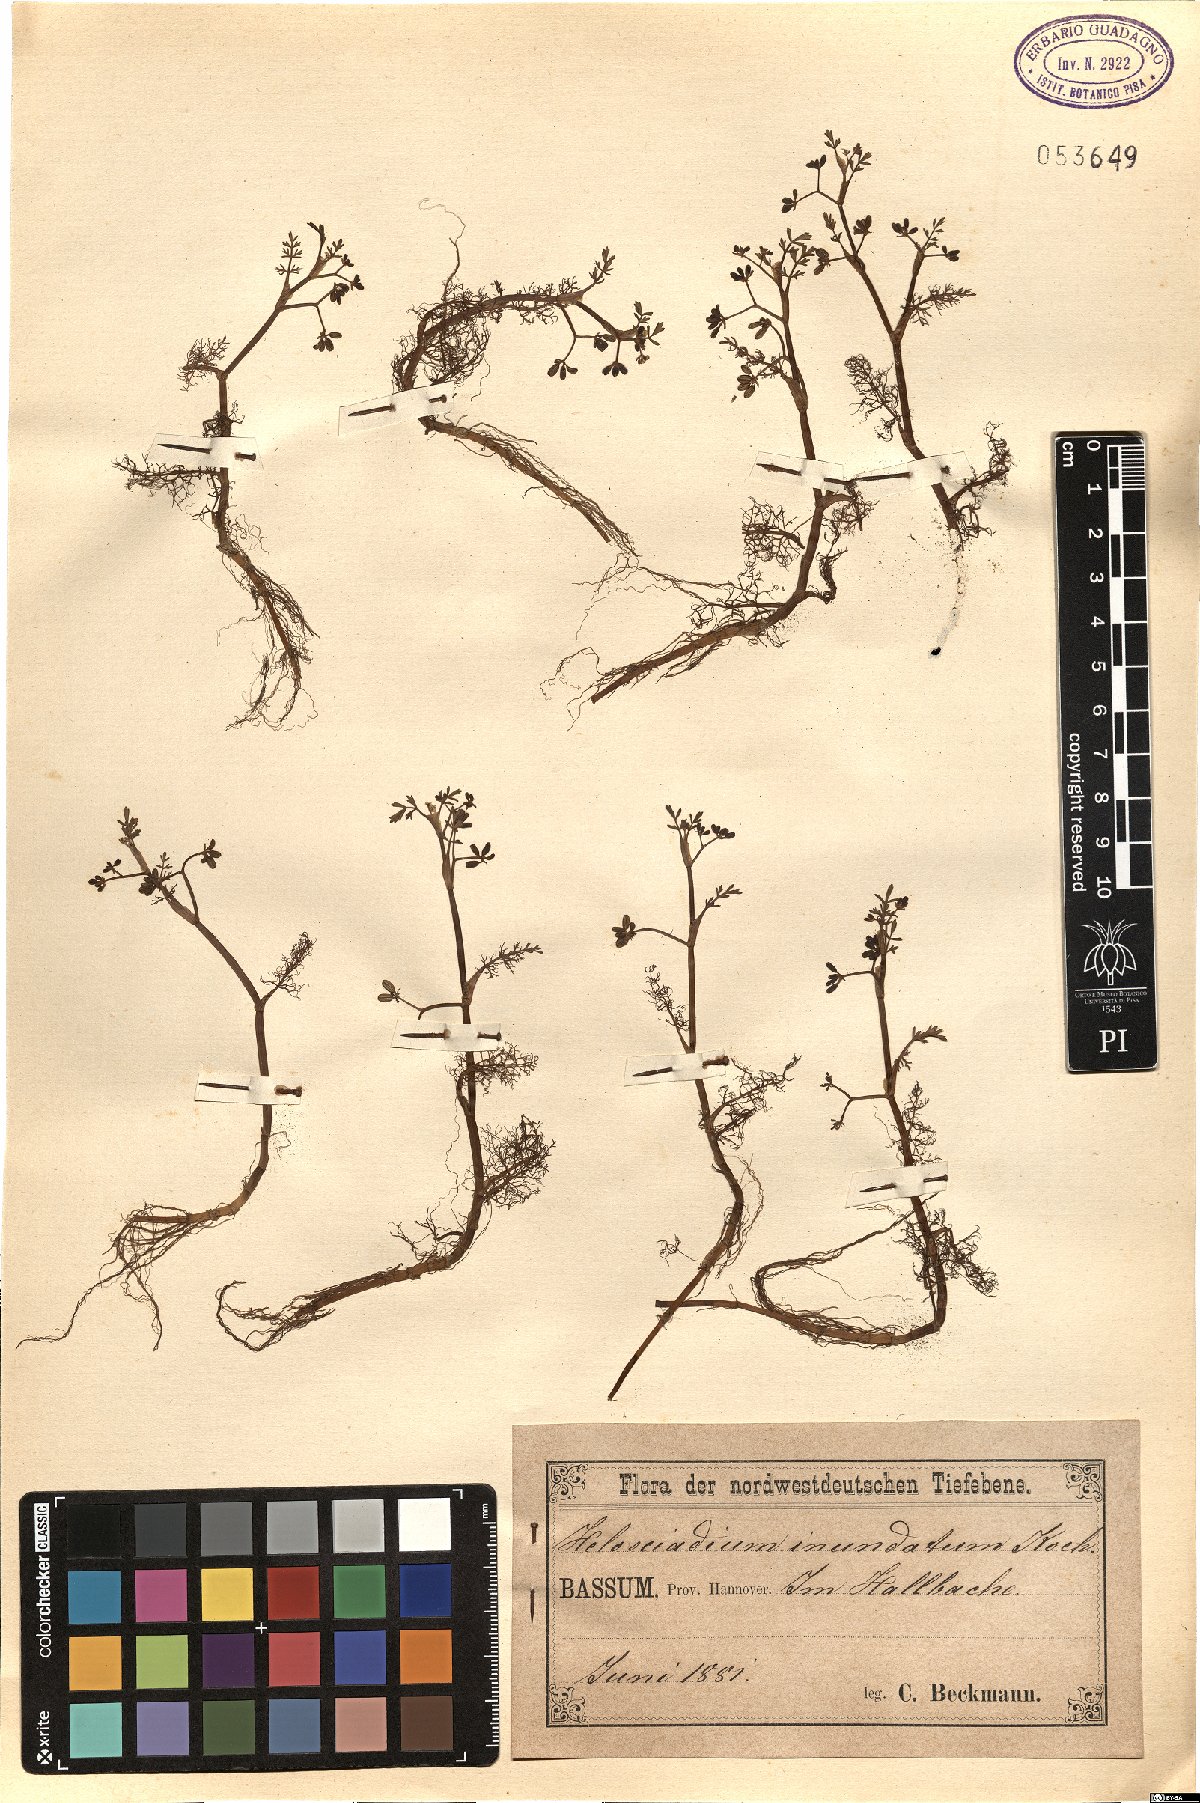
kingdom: Plantae
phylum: Tracheophyta
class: Magnoliopsida
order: Apiales
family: Apiaceae
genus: Helosciadium
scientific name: Helosciadium inundatum
